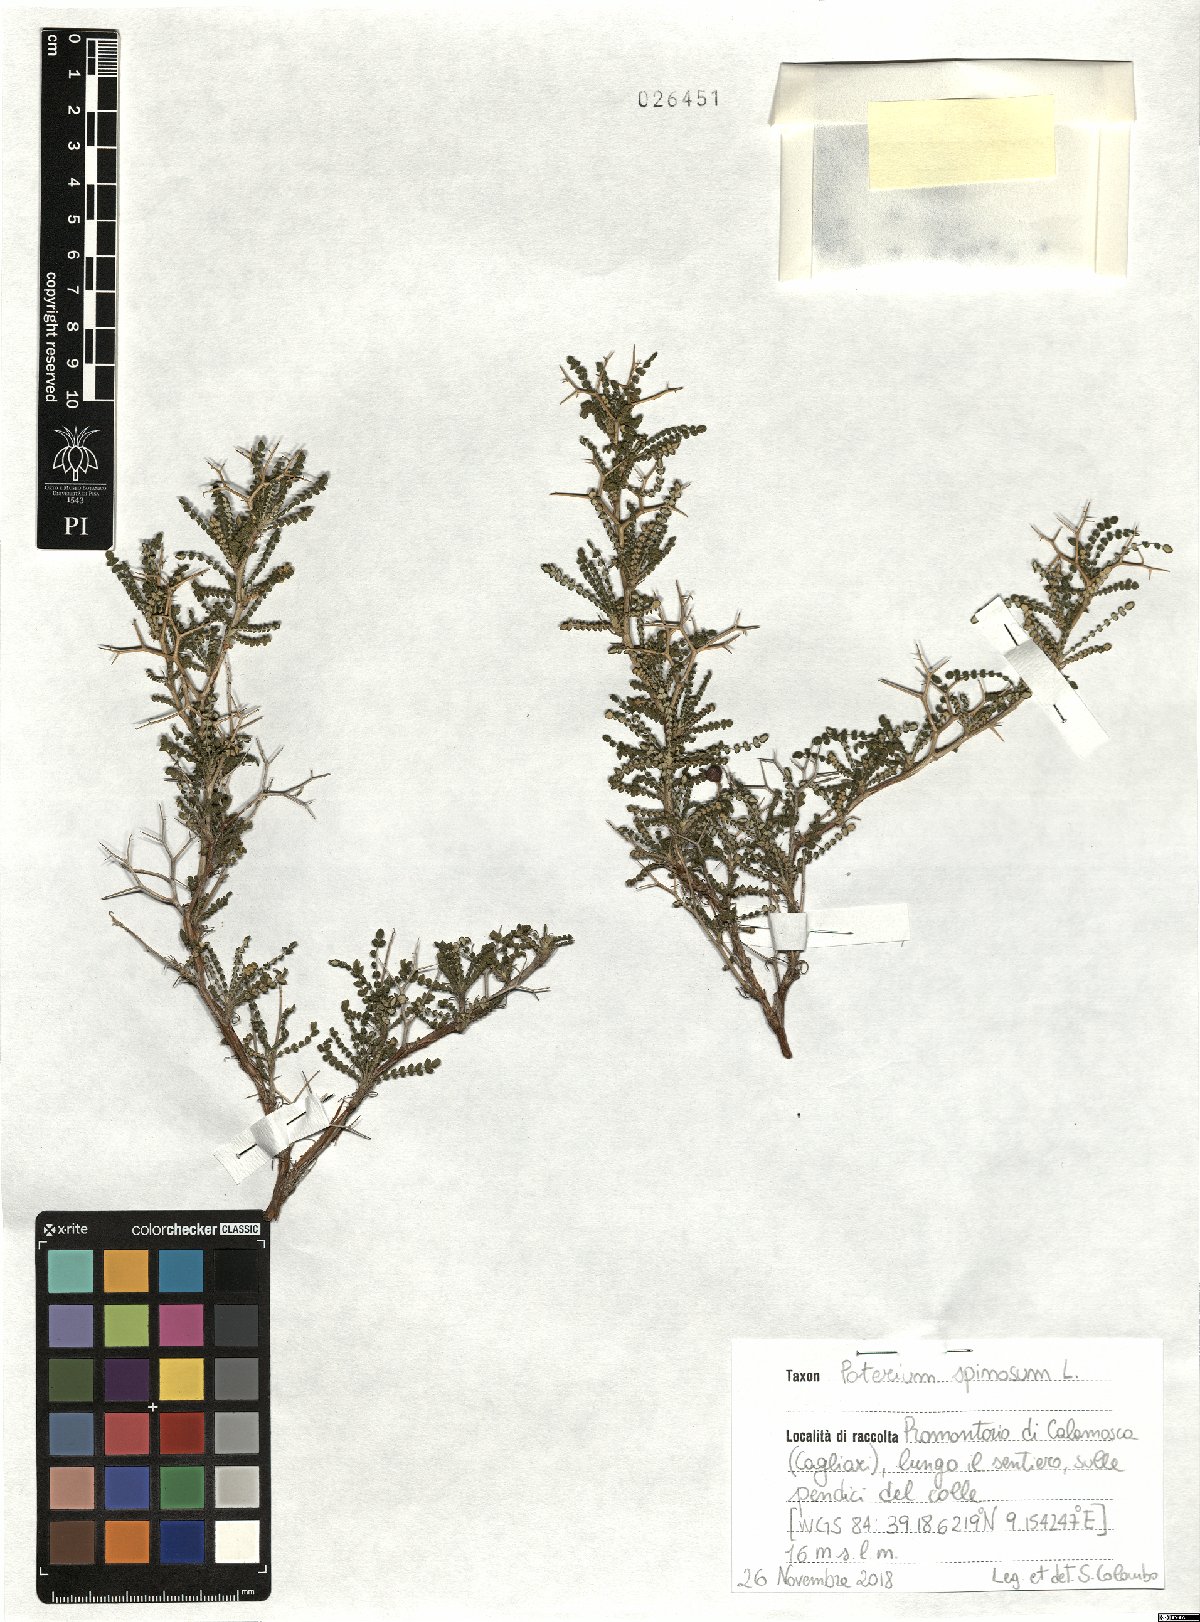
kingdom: Plantae
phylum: Tracheophyta
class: Magnoliopsida
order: Rosales
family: Rosaceae
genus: Sarcopoterium
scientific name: Sarcopoterium spinosum
